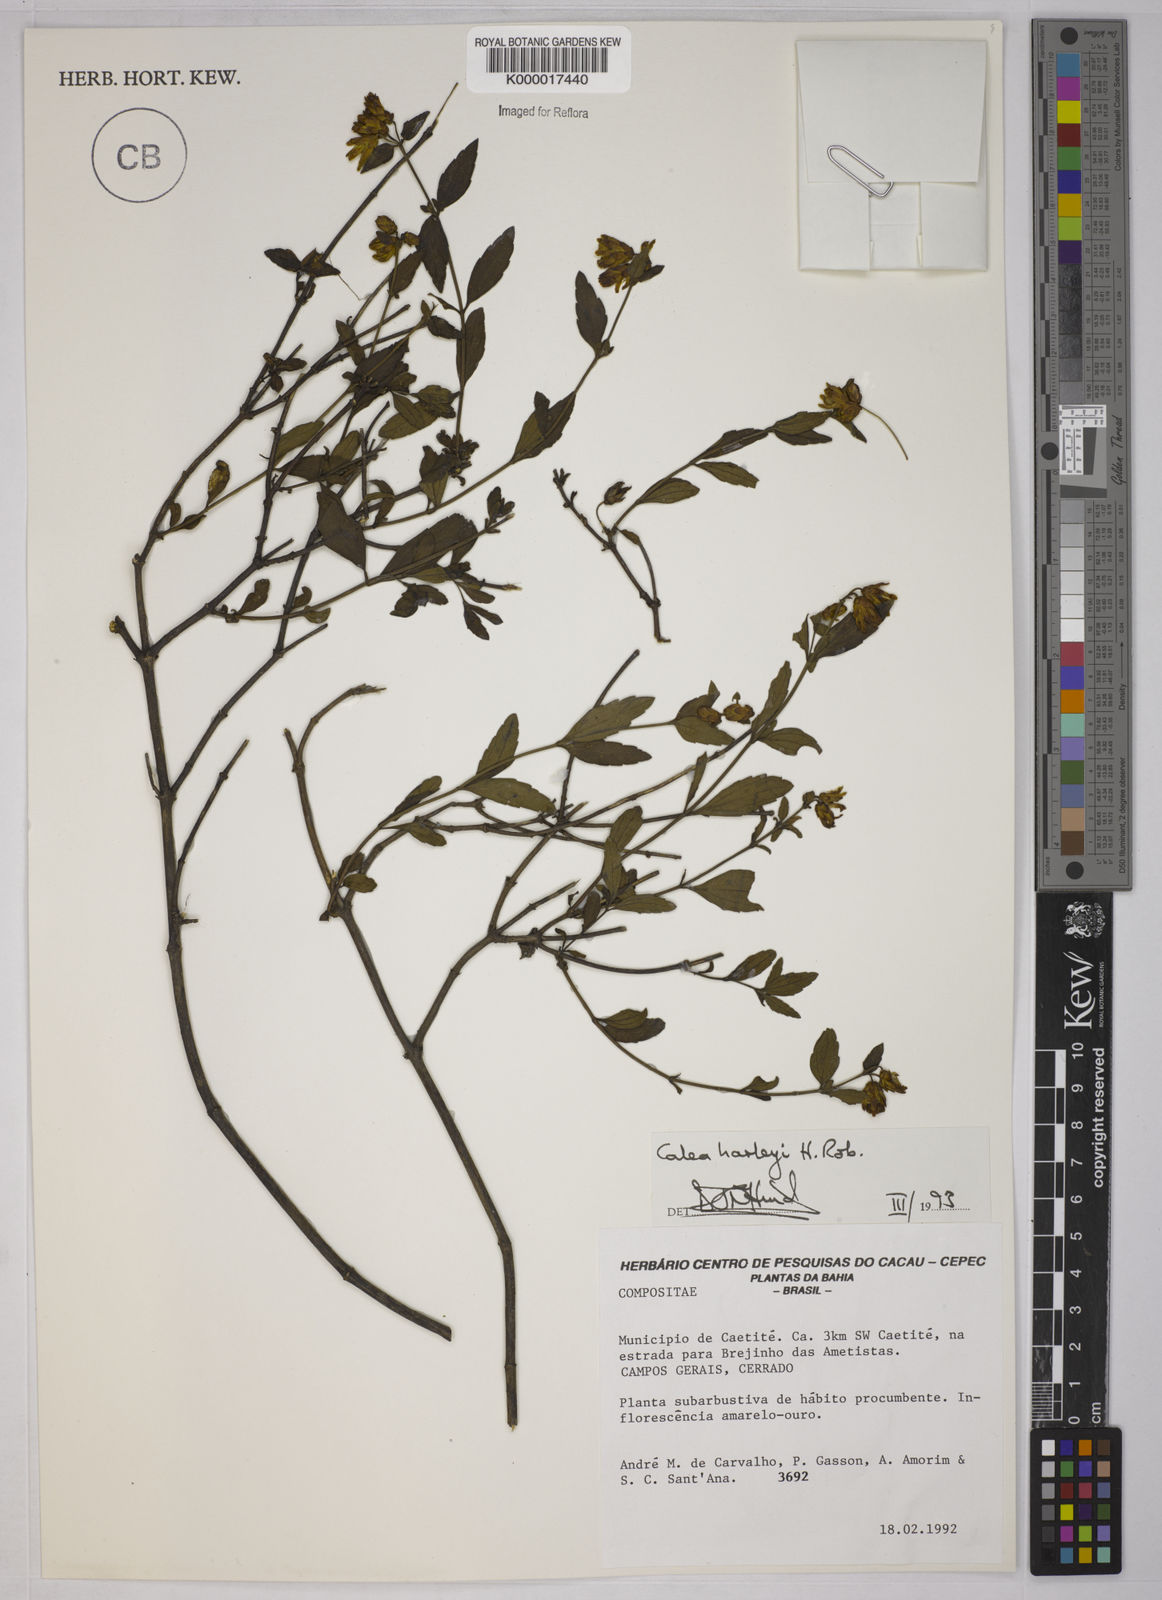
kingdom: Plantae
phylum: Tracheophyta
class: Magnoliopsida
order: Asterales
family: Asteraceae
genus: Calea
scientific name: Calea harleyi
